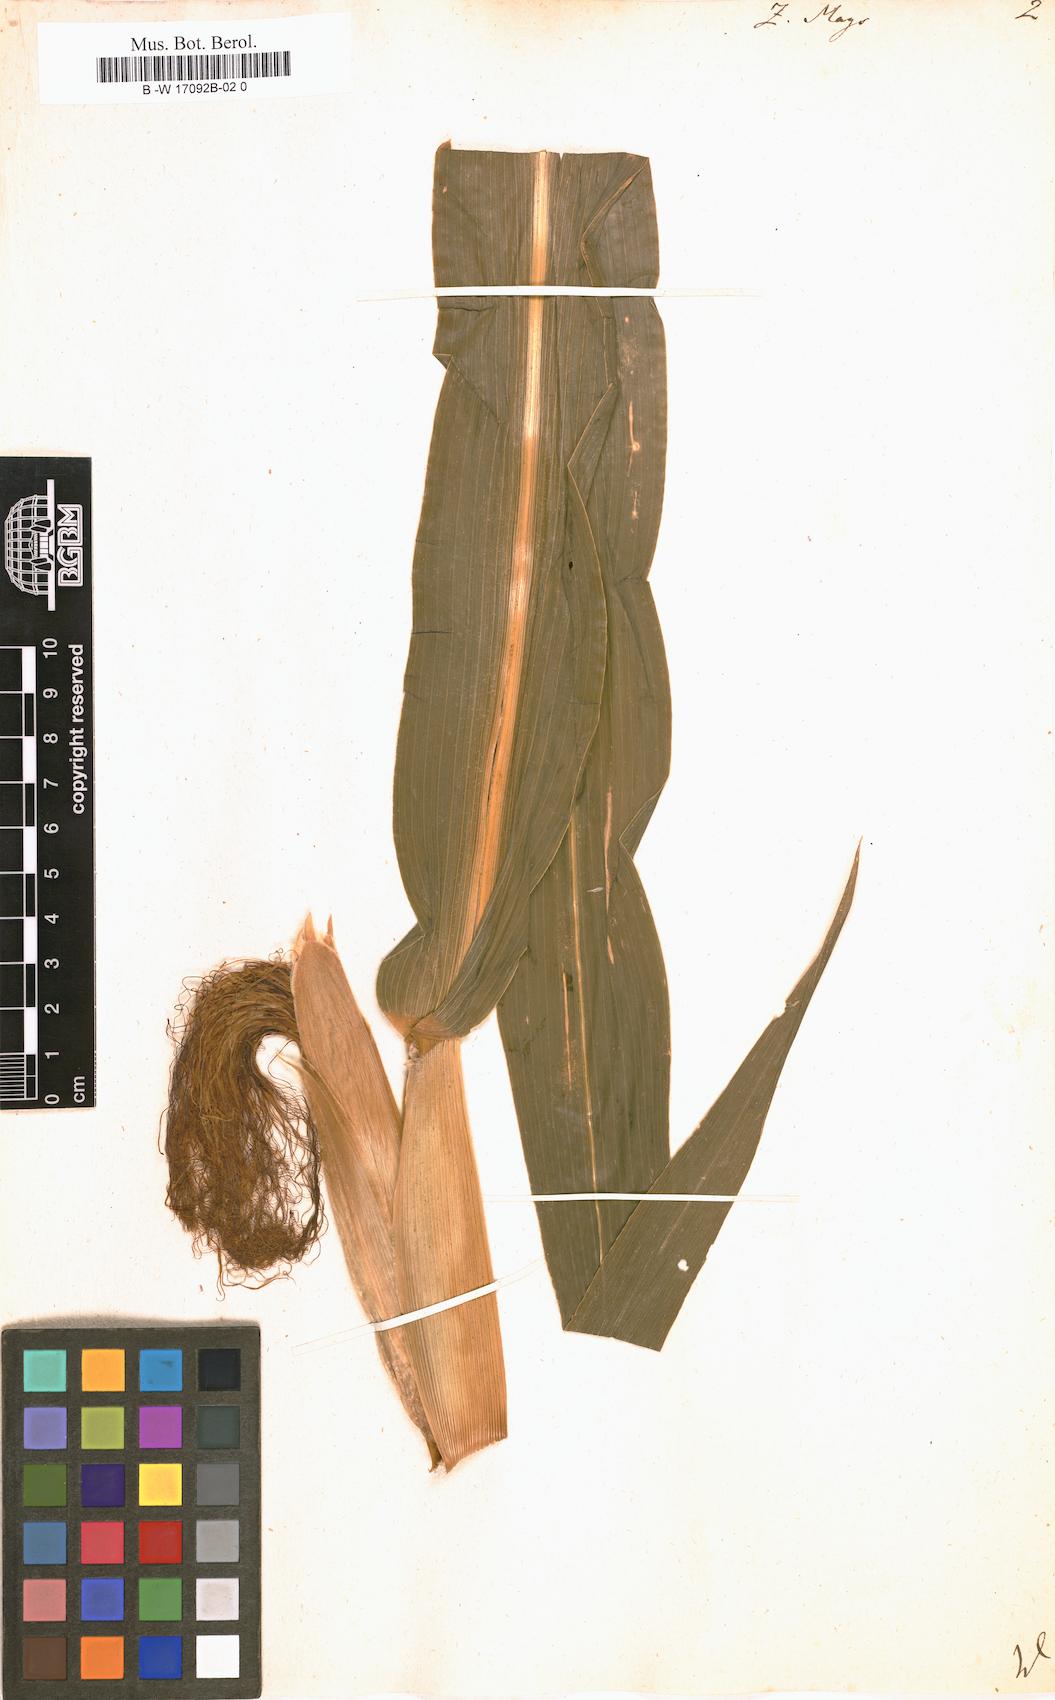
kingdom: Plantae
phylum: Tracheophyta
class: Liliopsida
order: Poales
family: Poaceae
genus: Zea
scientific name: Zea mays
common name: Maize
